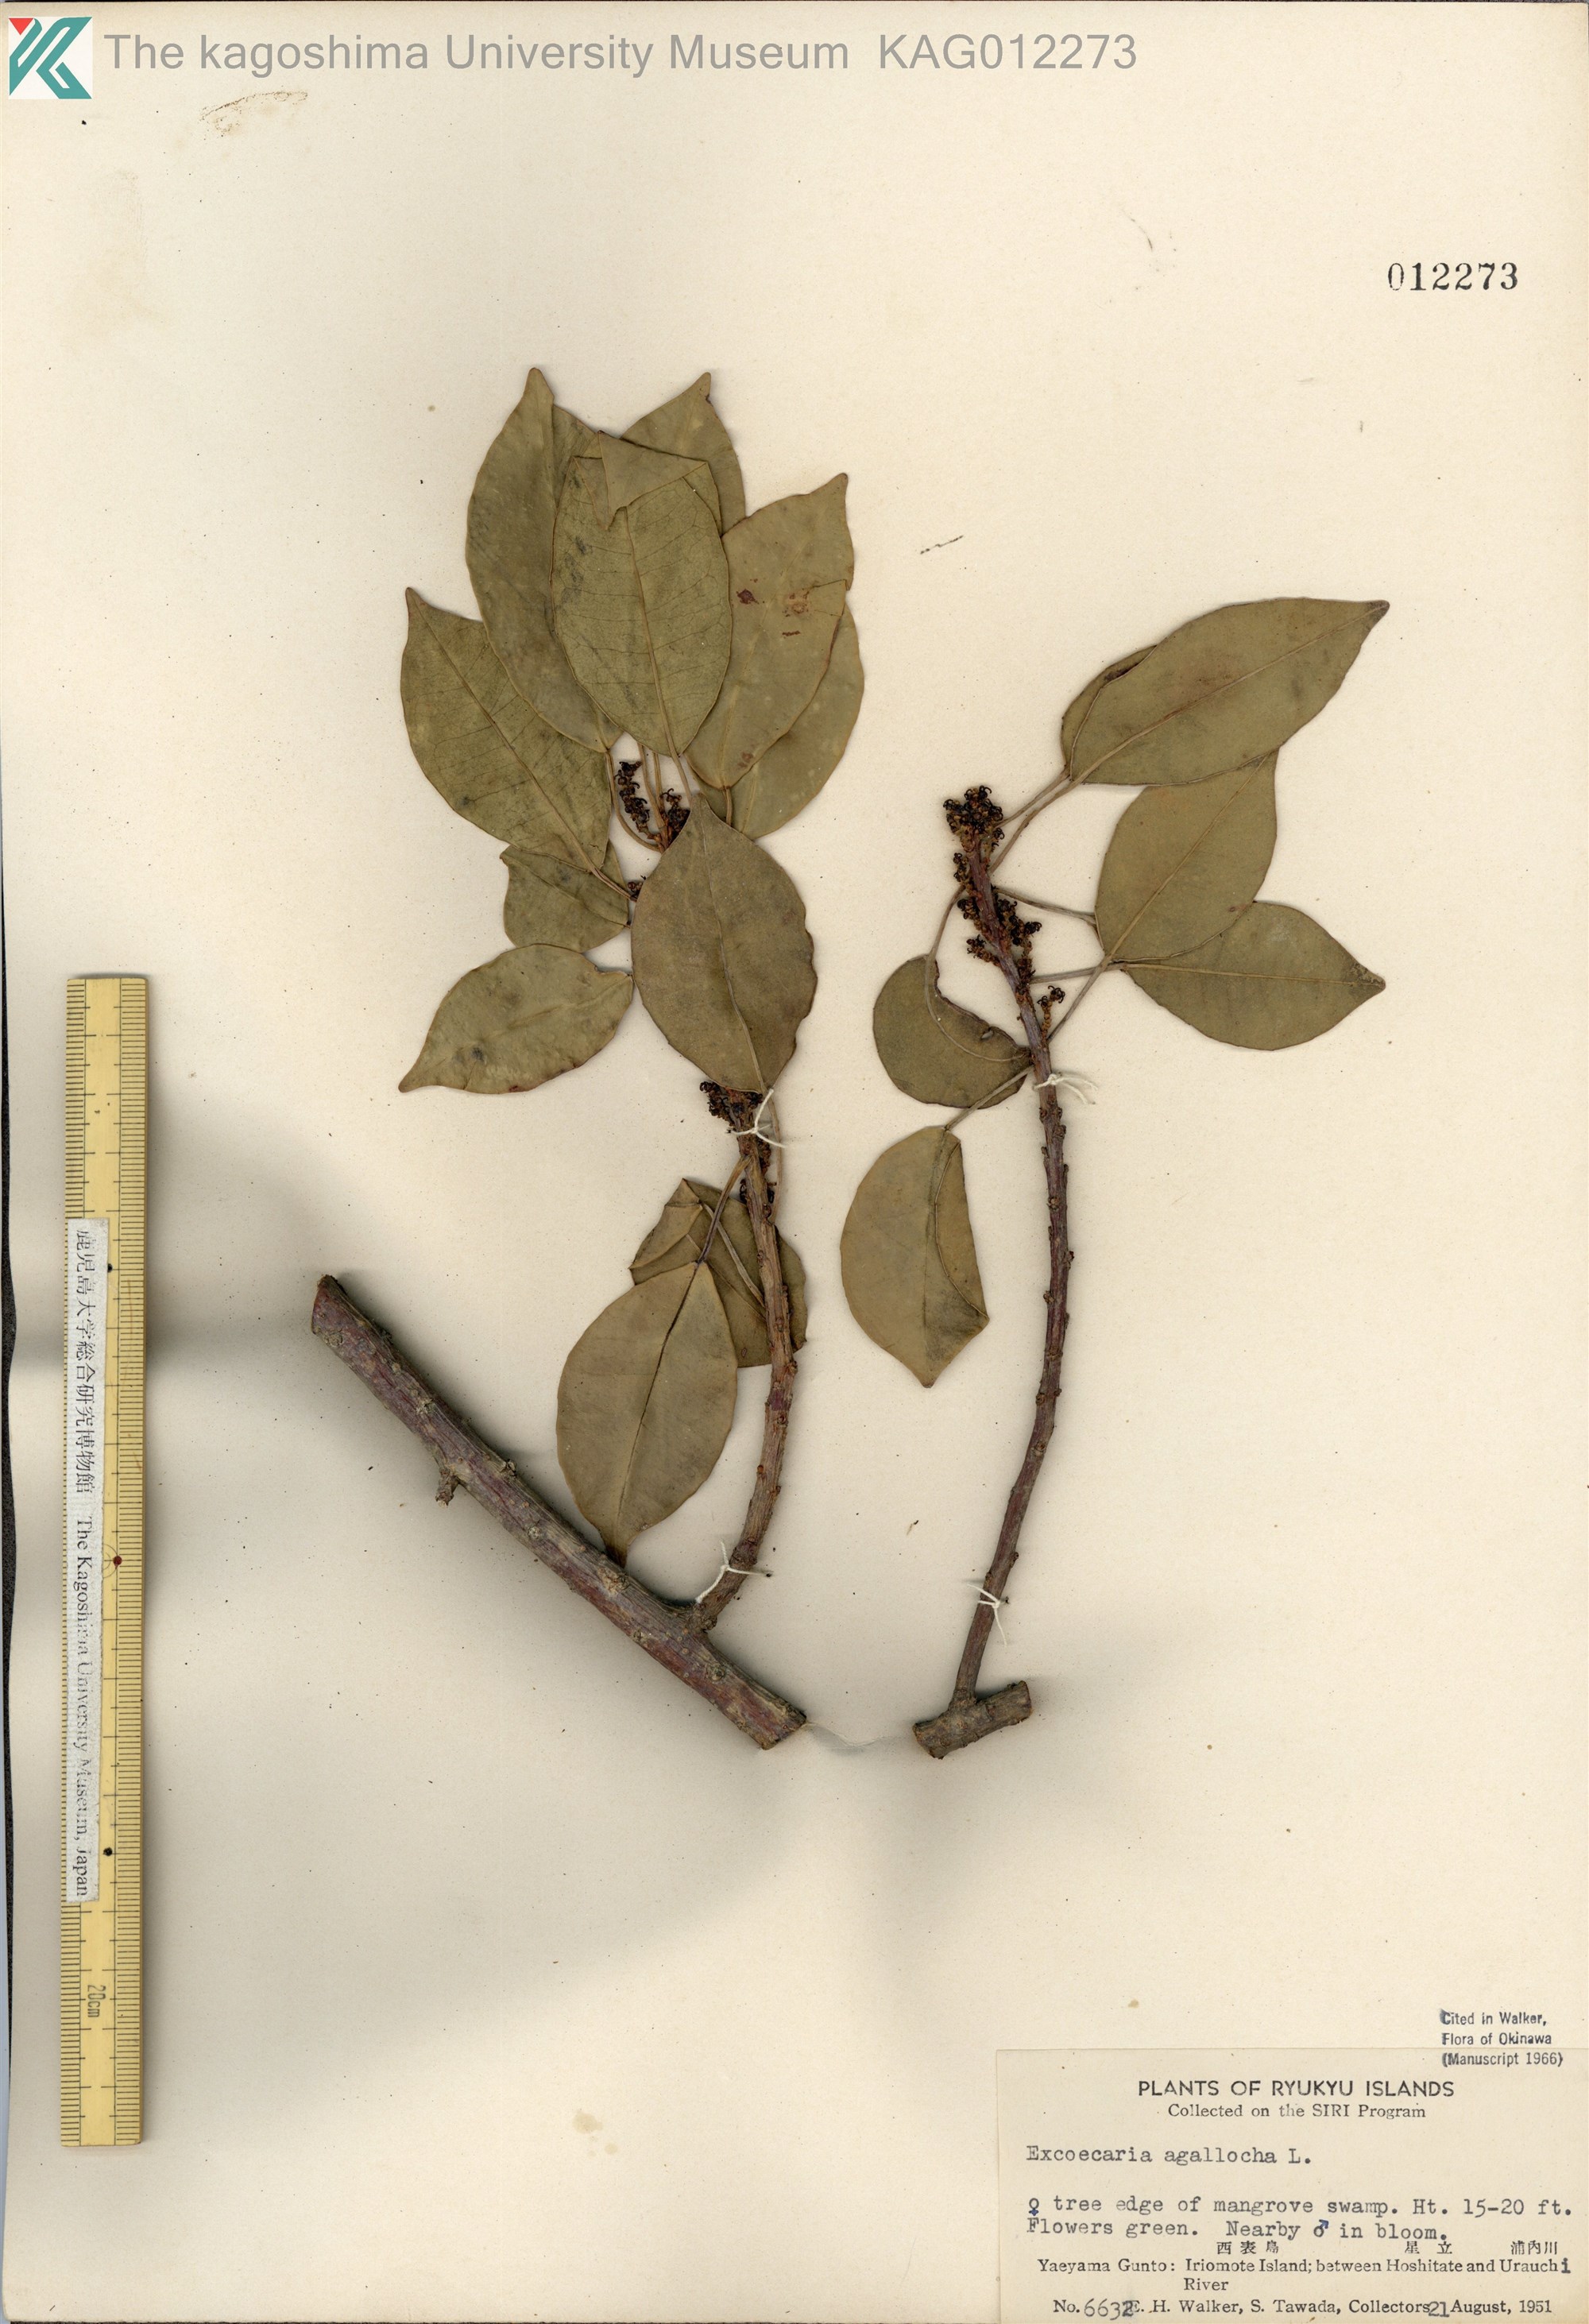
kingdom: Plantae
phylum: Tracheophyta
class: Magnoliopsida
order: Malpighiales
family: Euphorbiaceae
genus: Excoecaria
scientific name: Excoecaria agallocha
